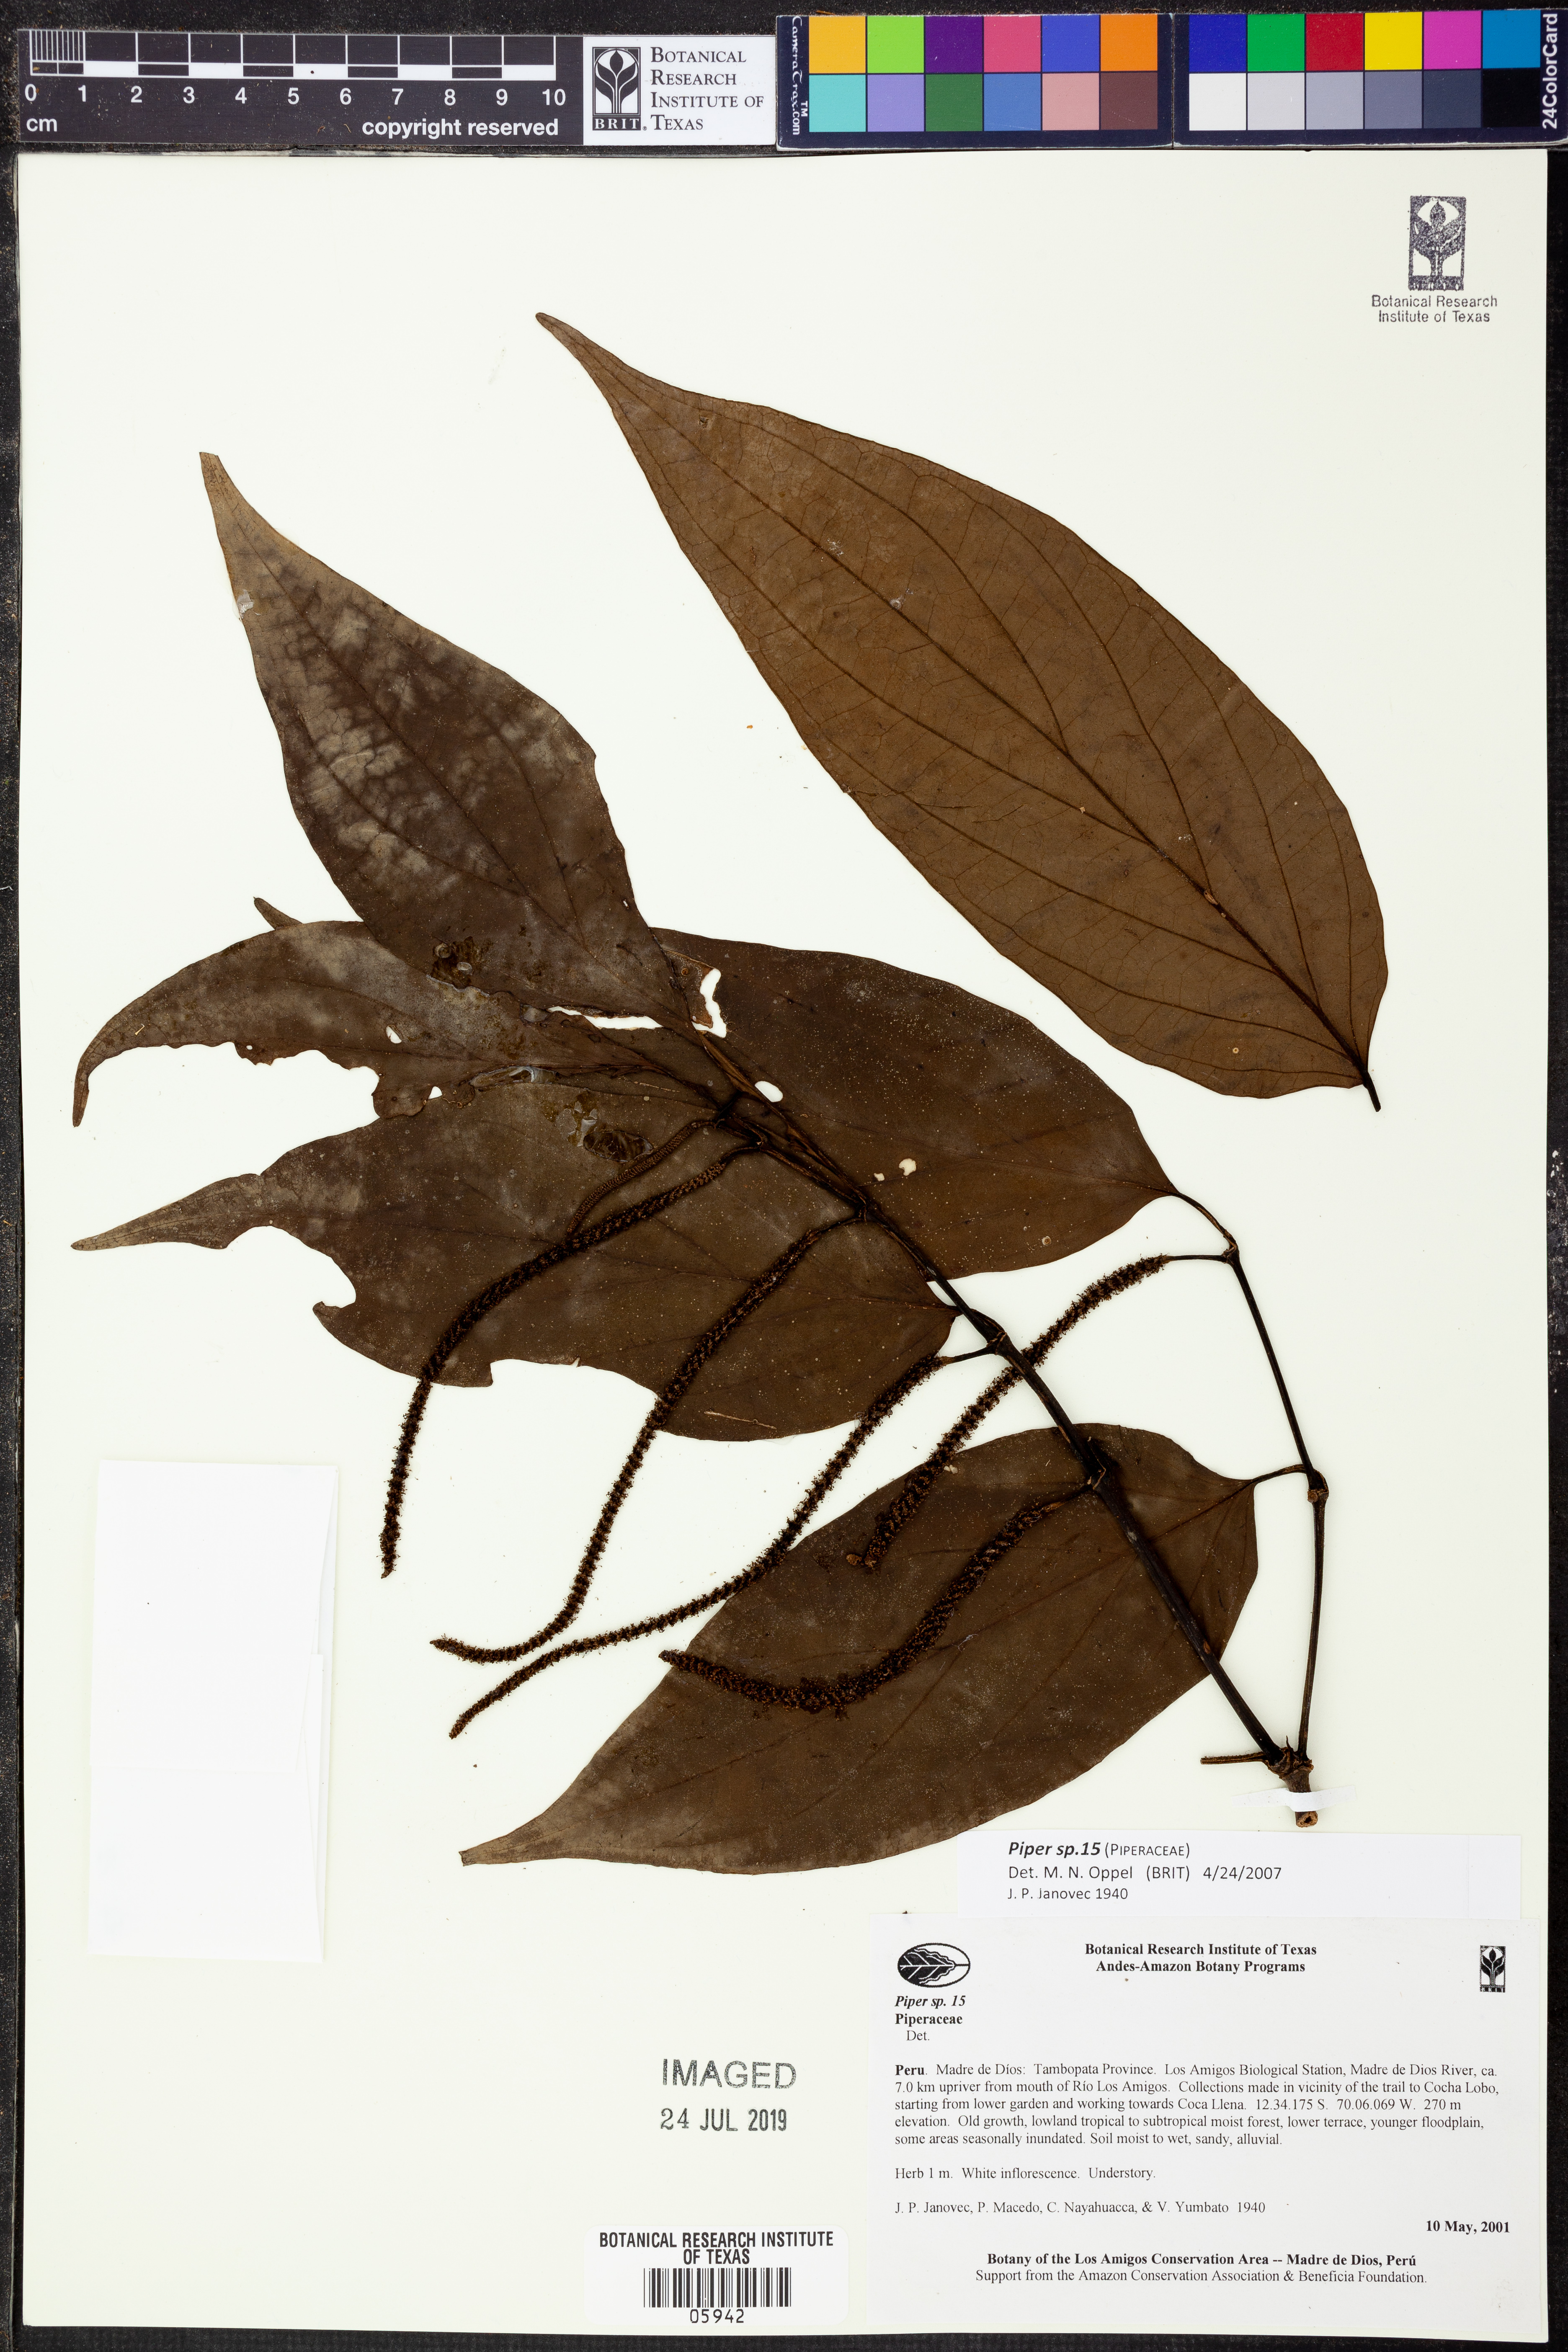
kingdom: Plantae
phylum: Tracheophyta
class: Magnoliopsida
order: Piperales
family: Piperaceae
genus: Piper
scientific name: Piper
